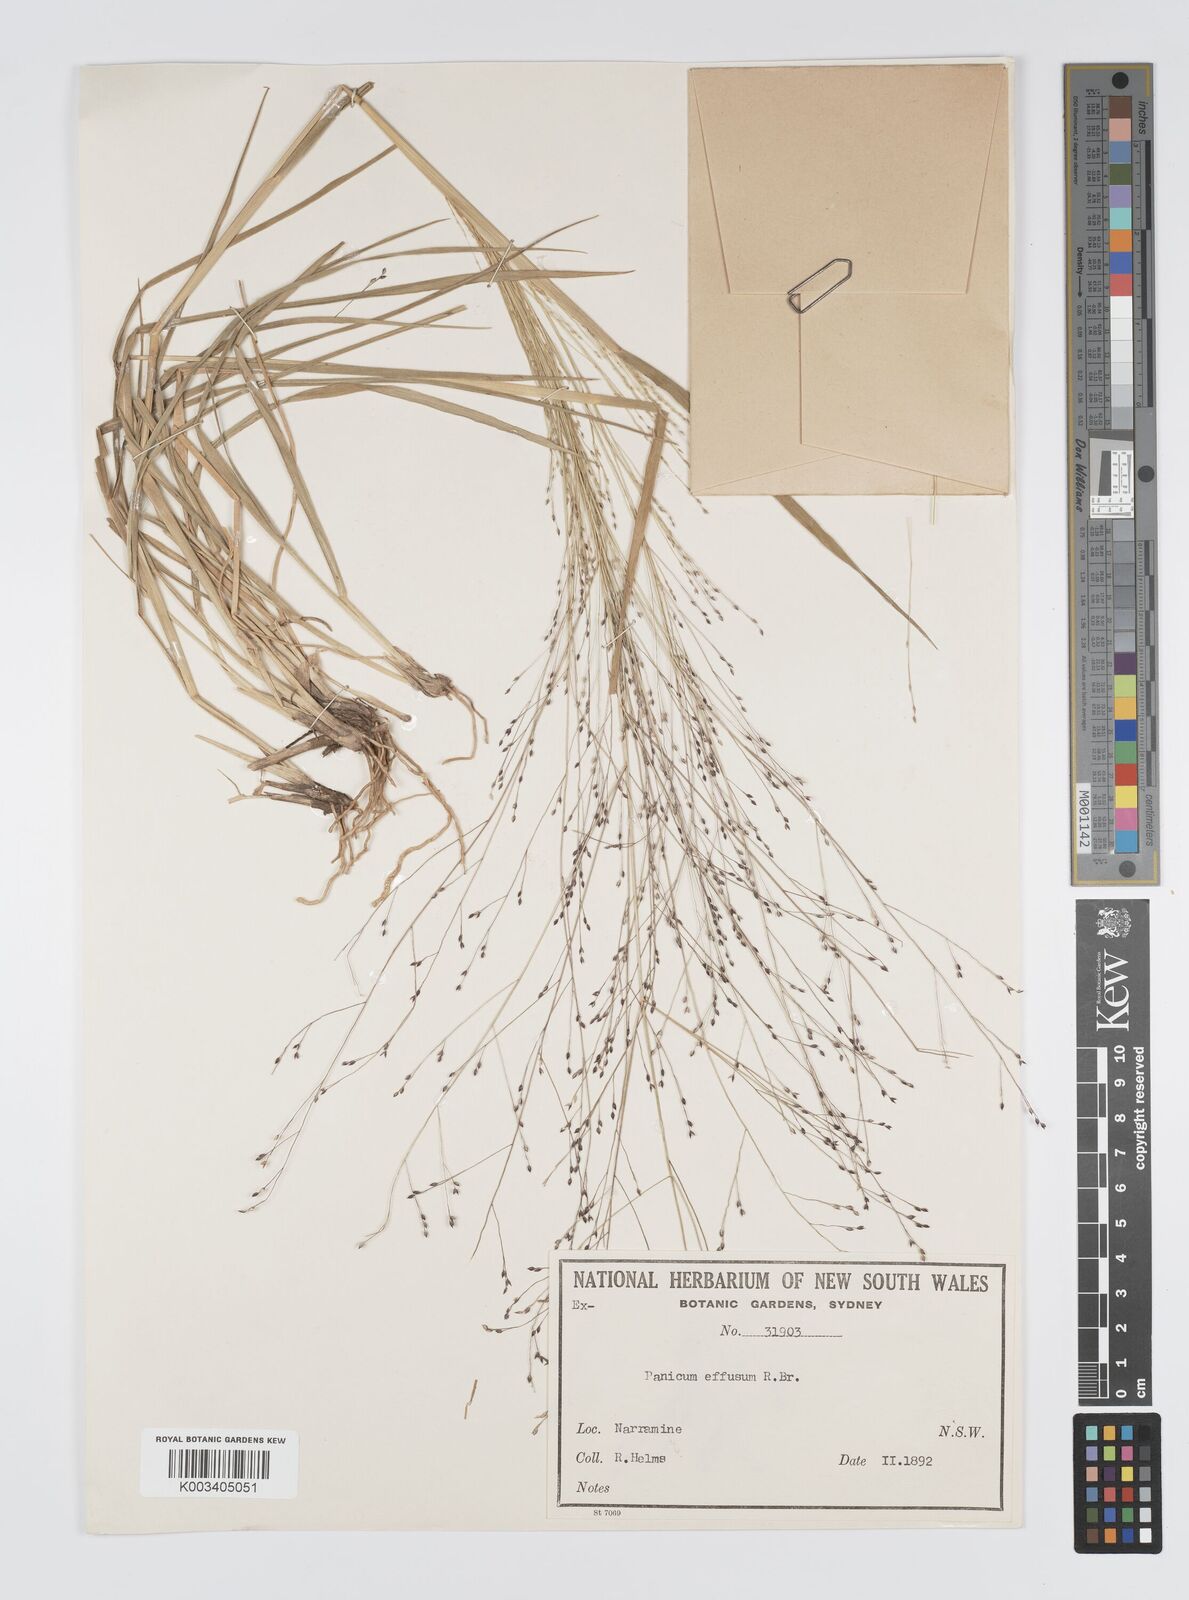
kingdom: Plantae
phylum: Tracheophyta
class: Liliopsida
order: Poales
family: Poaceae
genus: Panicum
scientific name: Panicum effusum
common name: Hairy panic grass
